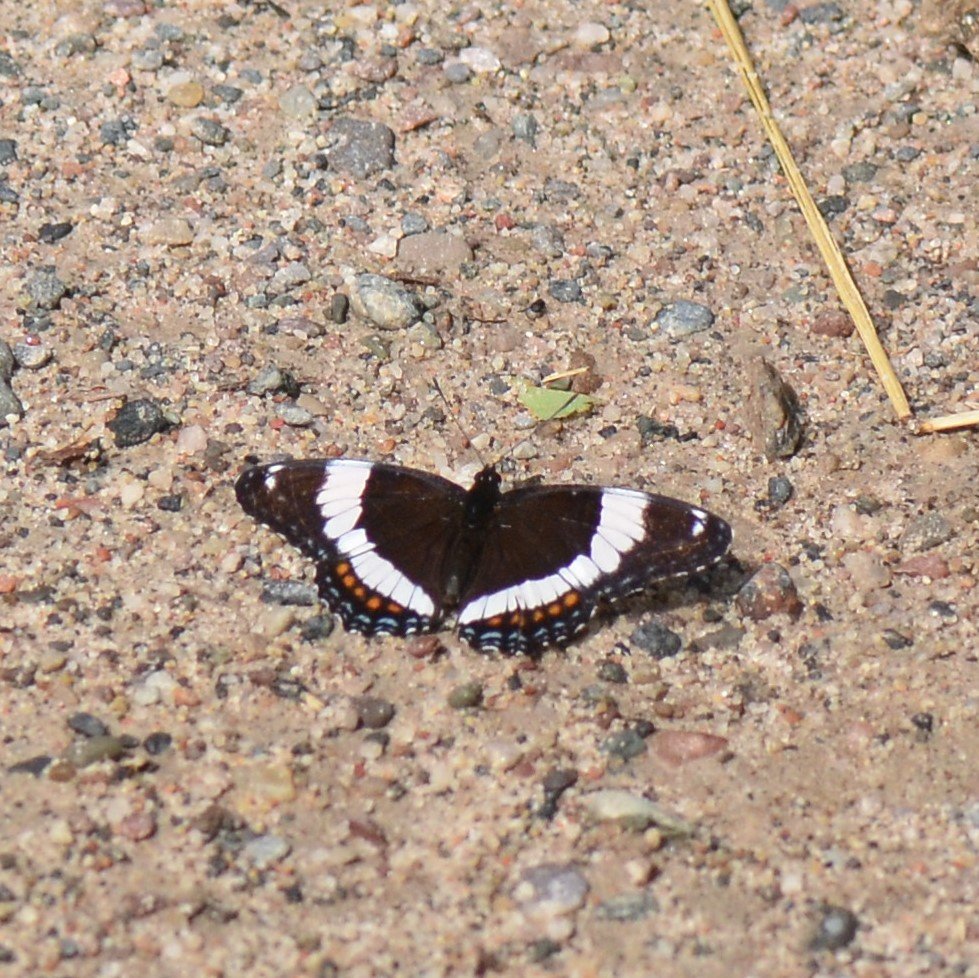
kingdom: Animalia
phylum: Arthropoda
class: Insecta
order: Lepidoptera
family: Nymphalidae
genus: Limenitis
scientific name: Limenitis arthemis
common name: Red-spotted Admiral
